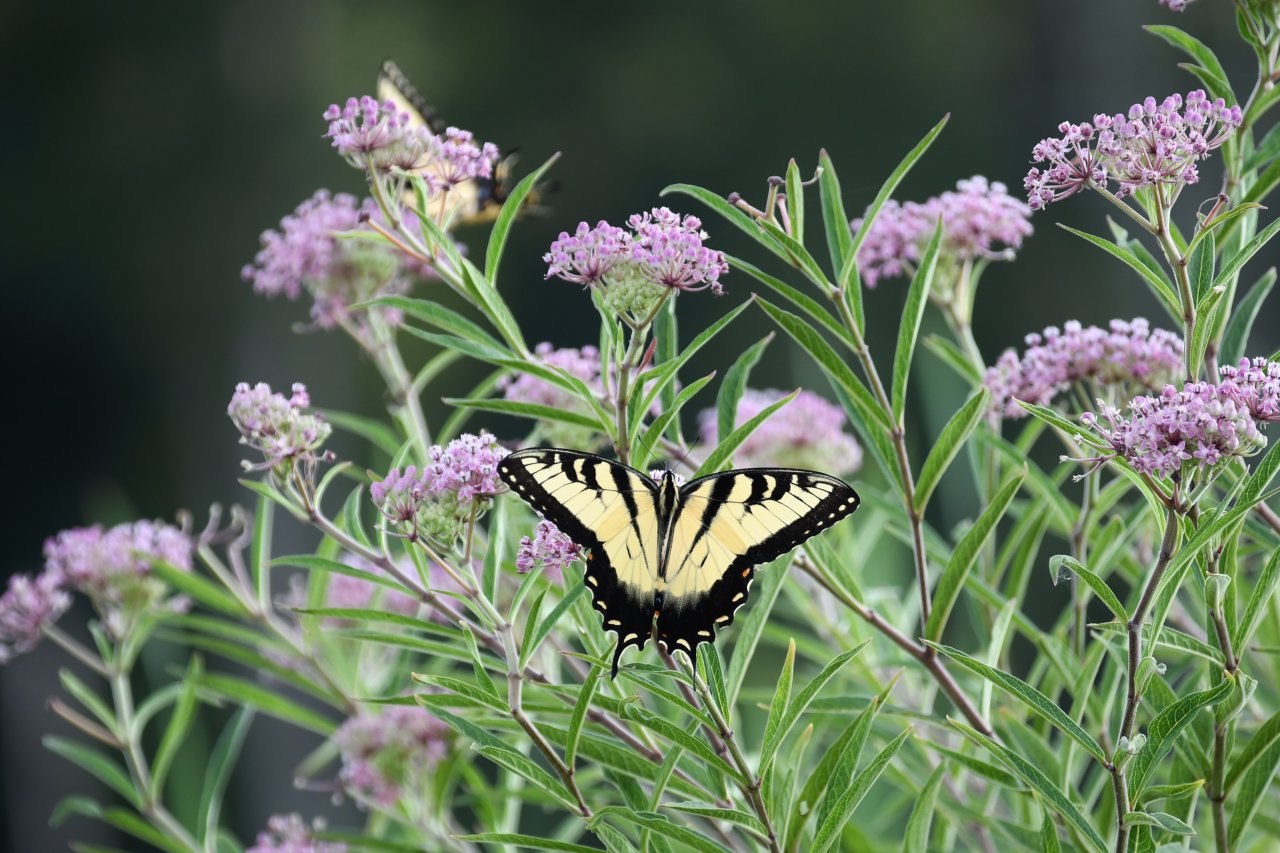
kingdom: Animalia
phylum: Arthropoda
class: Insecta
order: Lepidoptera
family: Papilionidae
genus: Pterourus
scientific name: Pterourus glaucus
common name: Eastern Tiger Swallowtail
